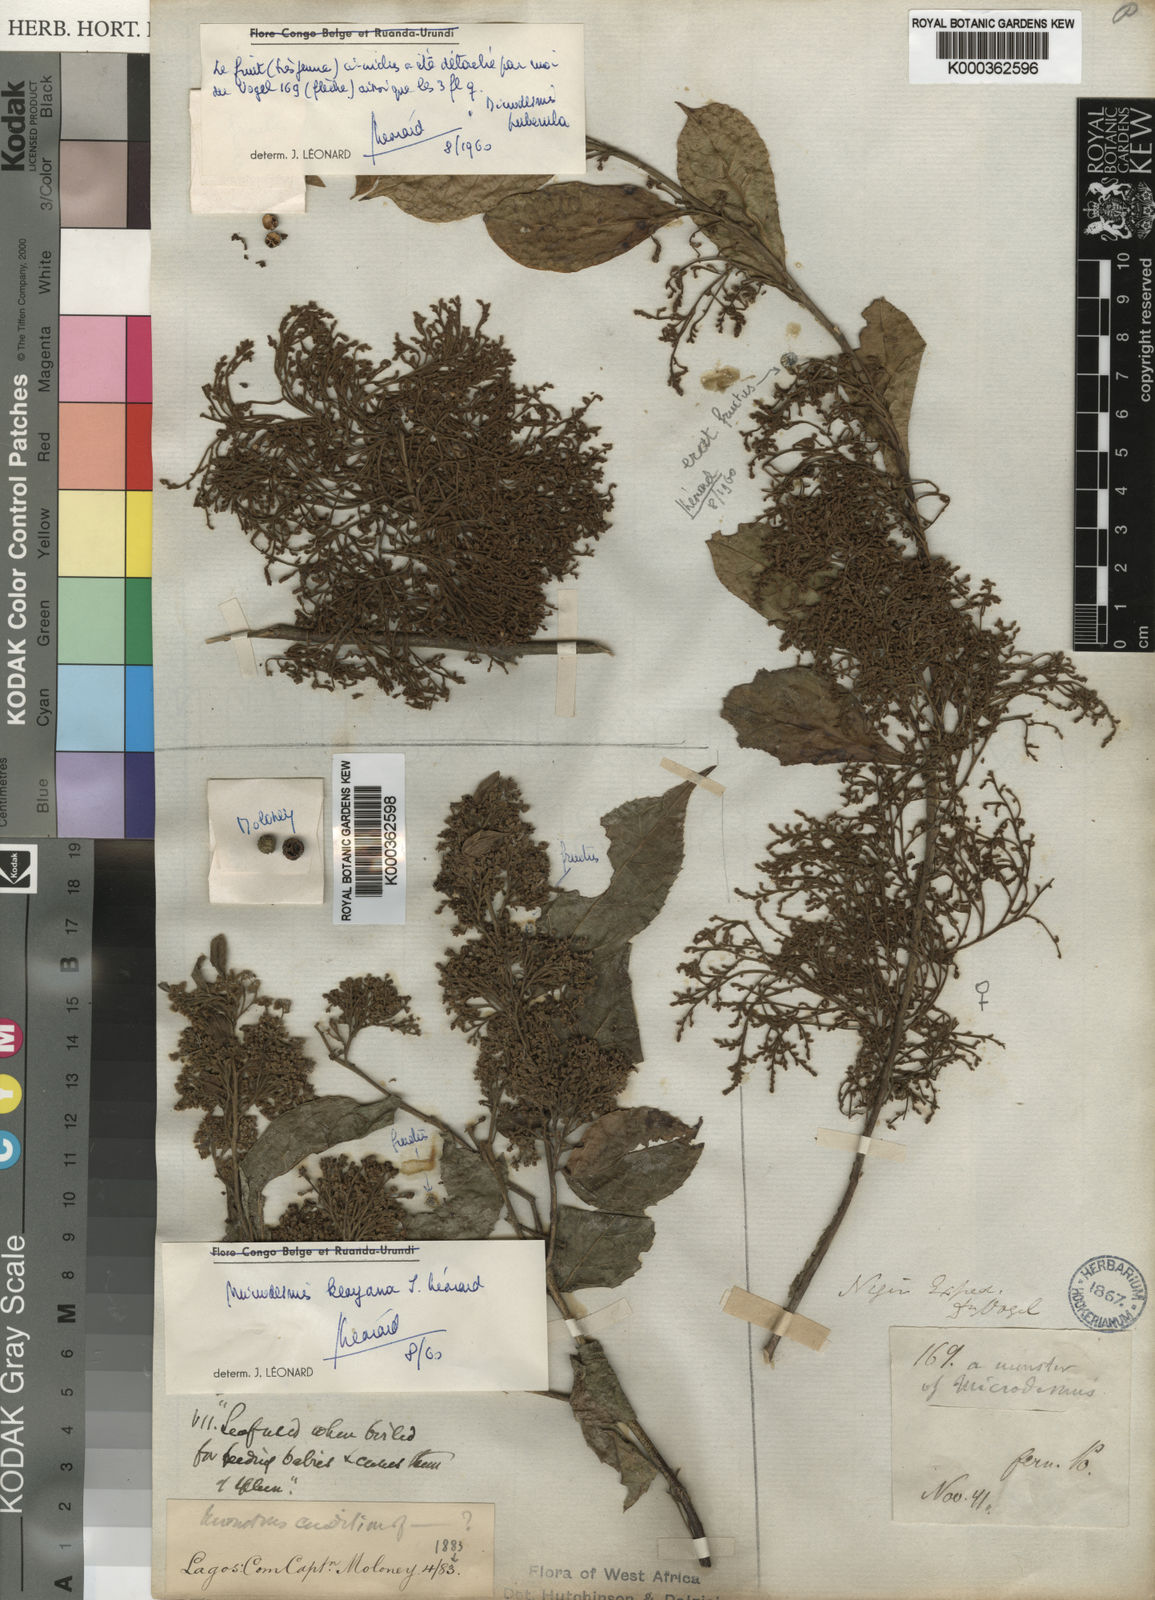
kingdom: Plantae
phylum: Tracheophyta
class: Magnoliopsida
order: Malpighiales
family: Pandaceae
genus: Microdesmis
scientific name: Microdesmis puberula
